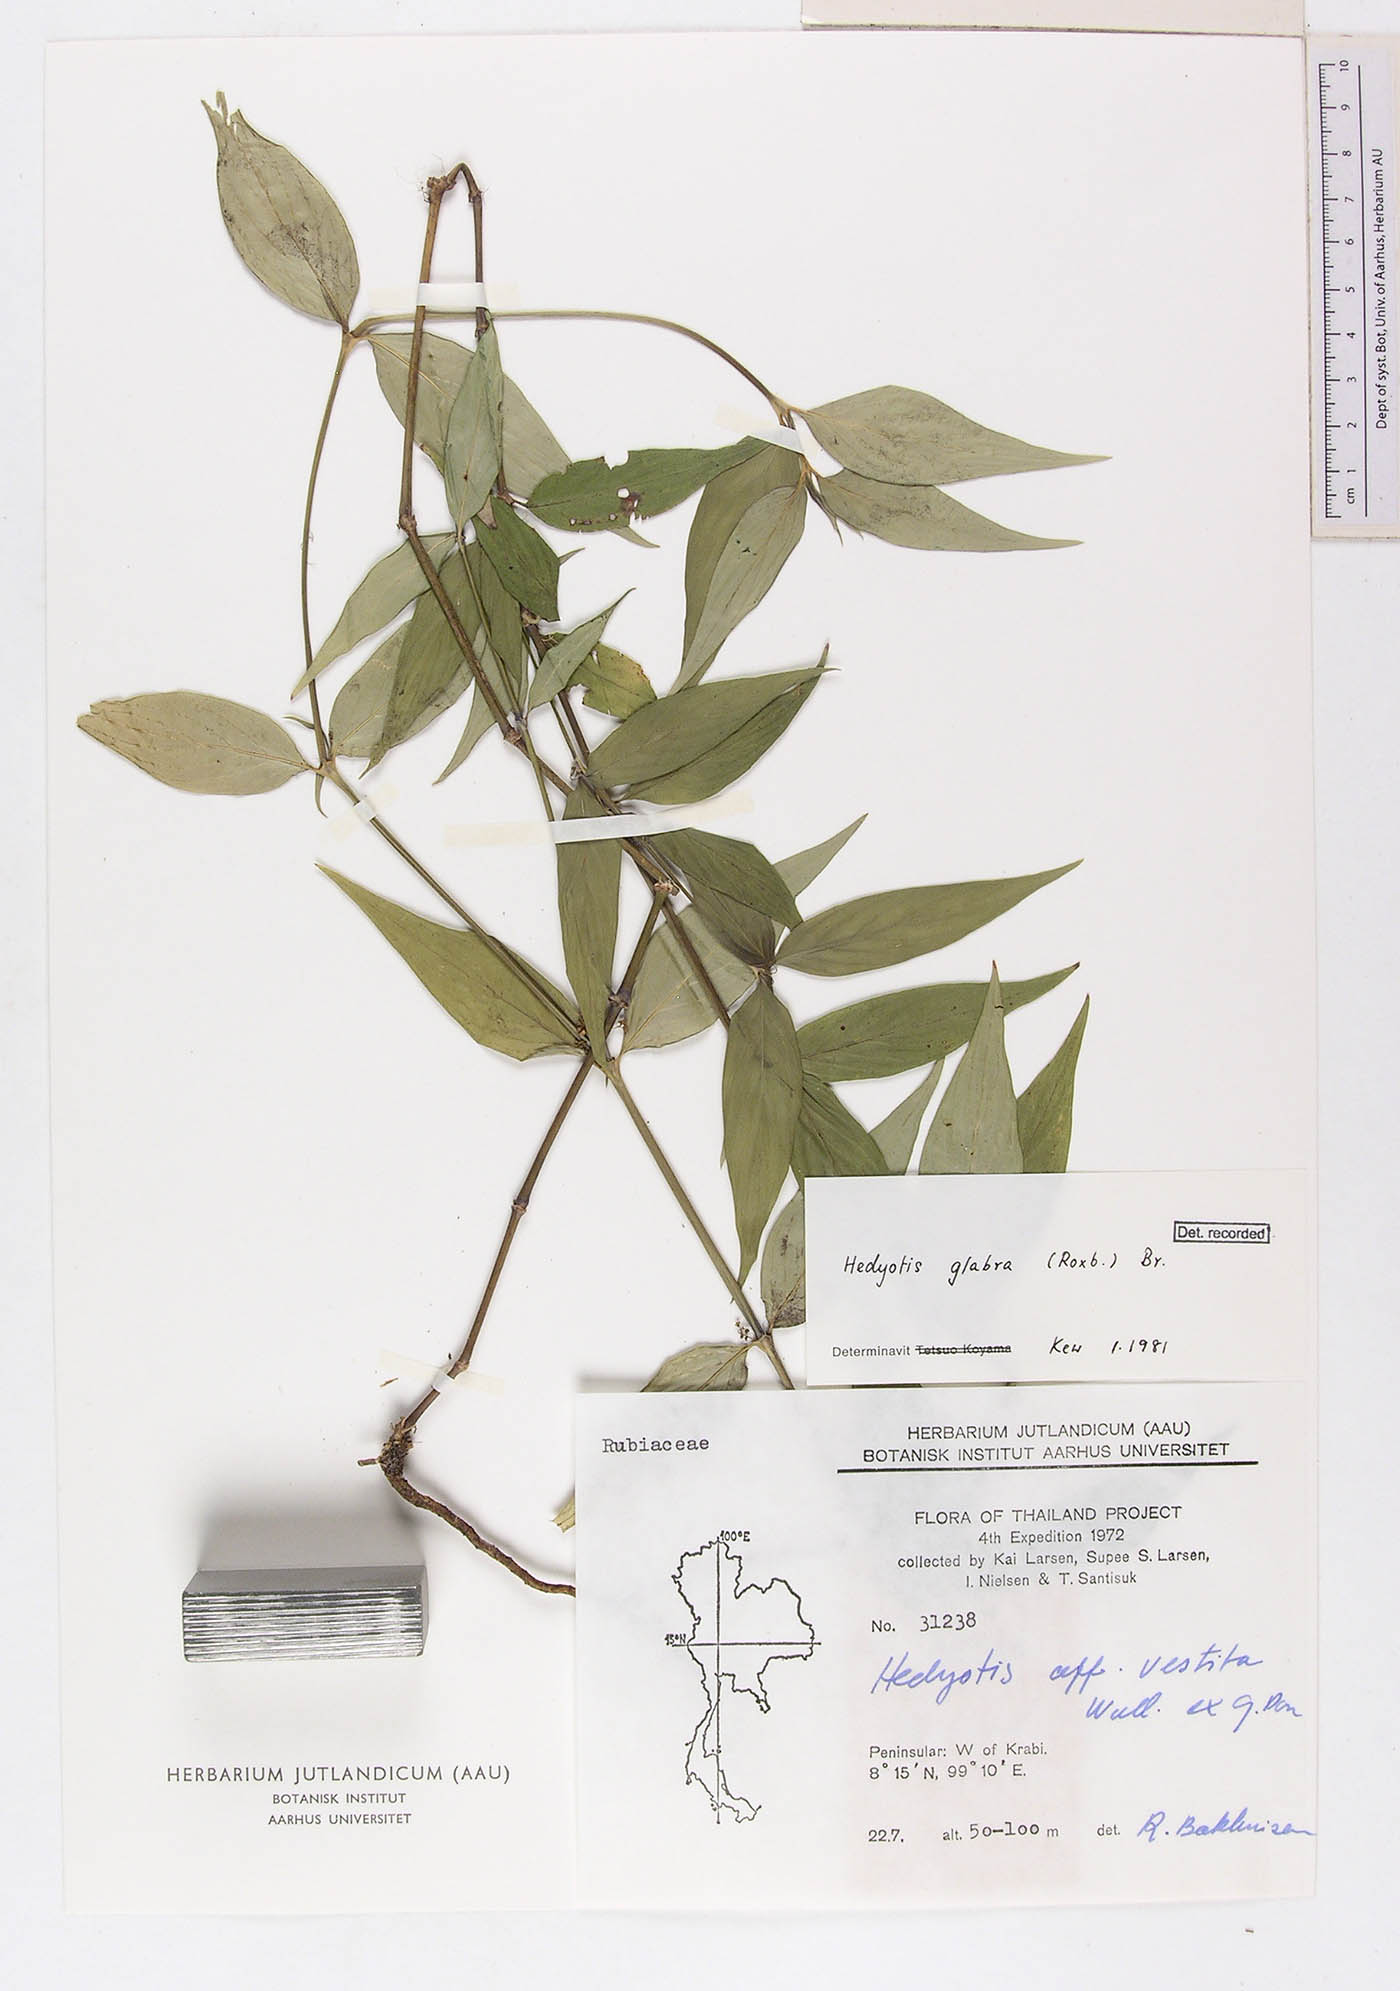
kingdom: Plantae
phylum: Tracheophyta
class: Magnoliopsida
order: Gentianales
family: Rubiaceae
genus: Exallage
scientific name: Exallage insularis
